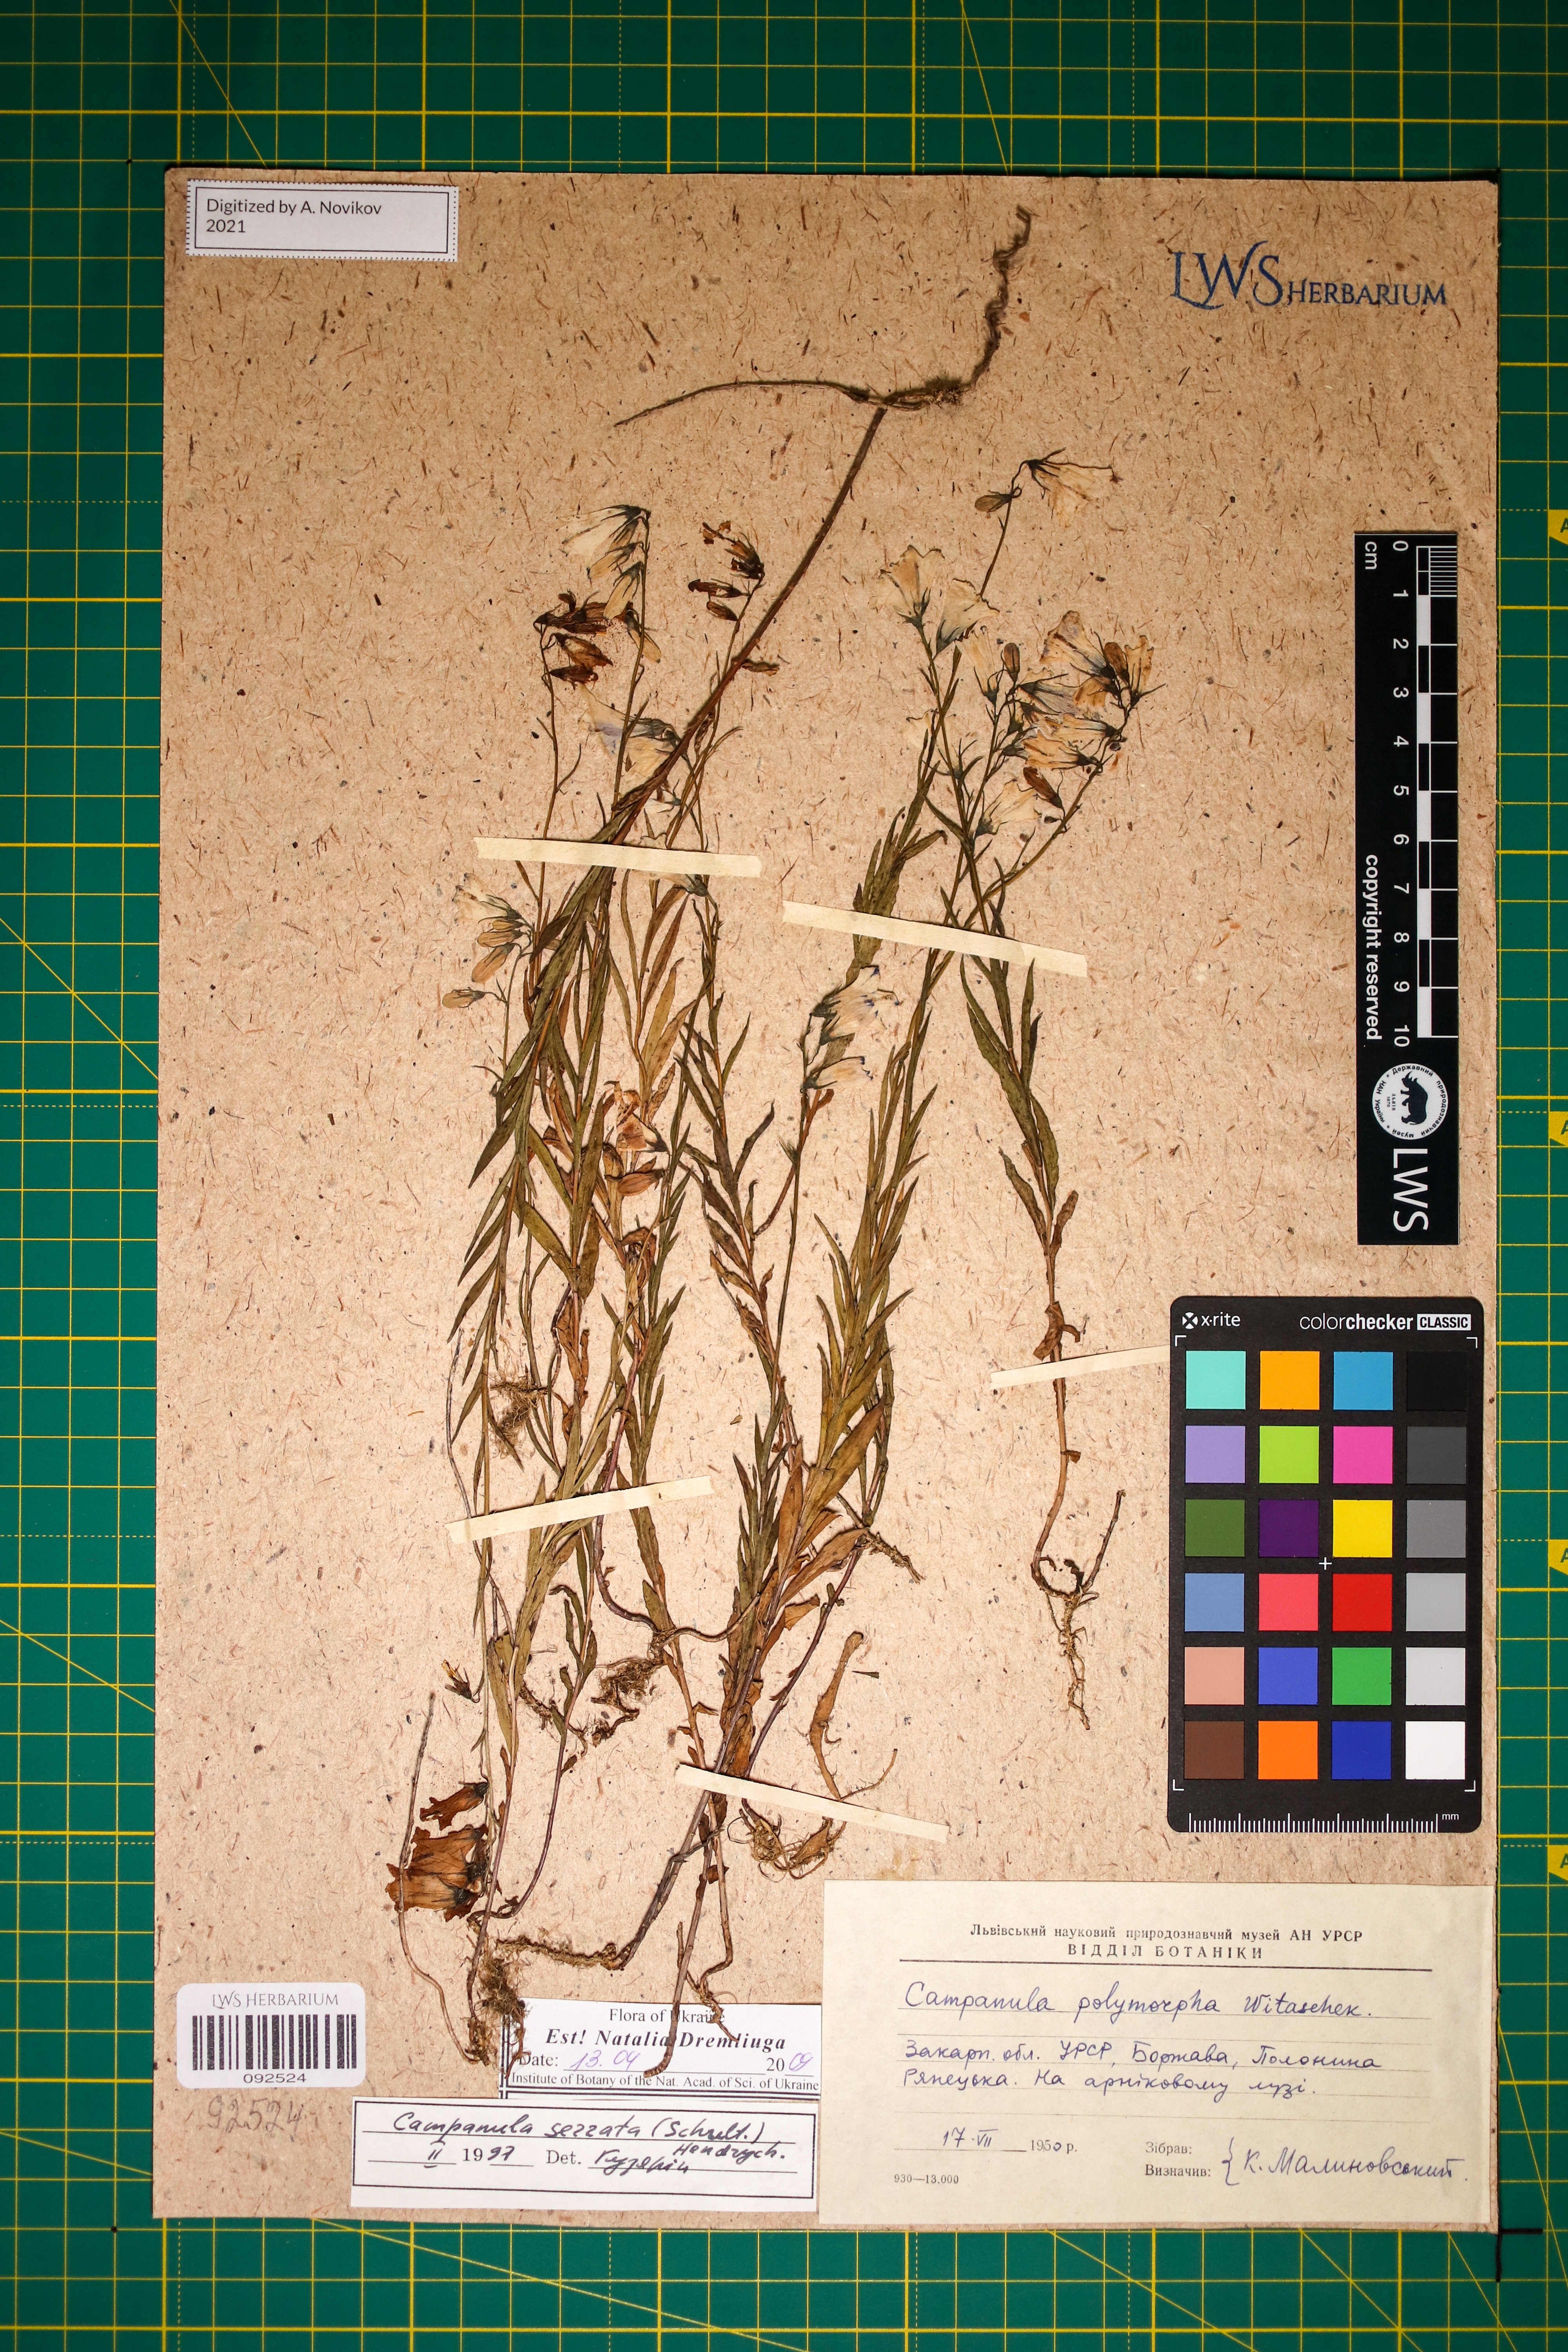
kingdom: Plantae
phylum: Tracheophyta
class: Magnoliopsida
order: Asterales
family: Campanulaceae
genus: Campanula
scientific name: Campanula serrata
